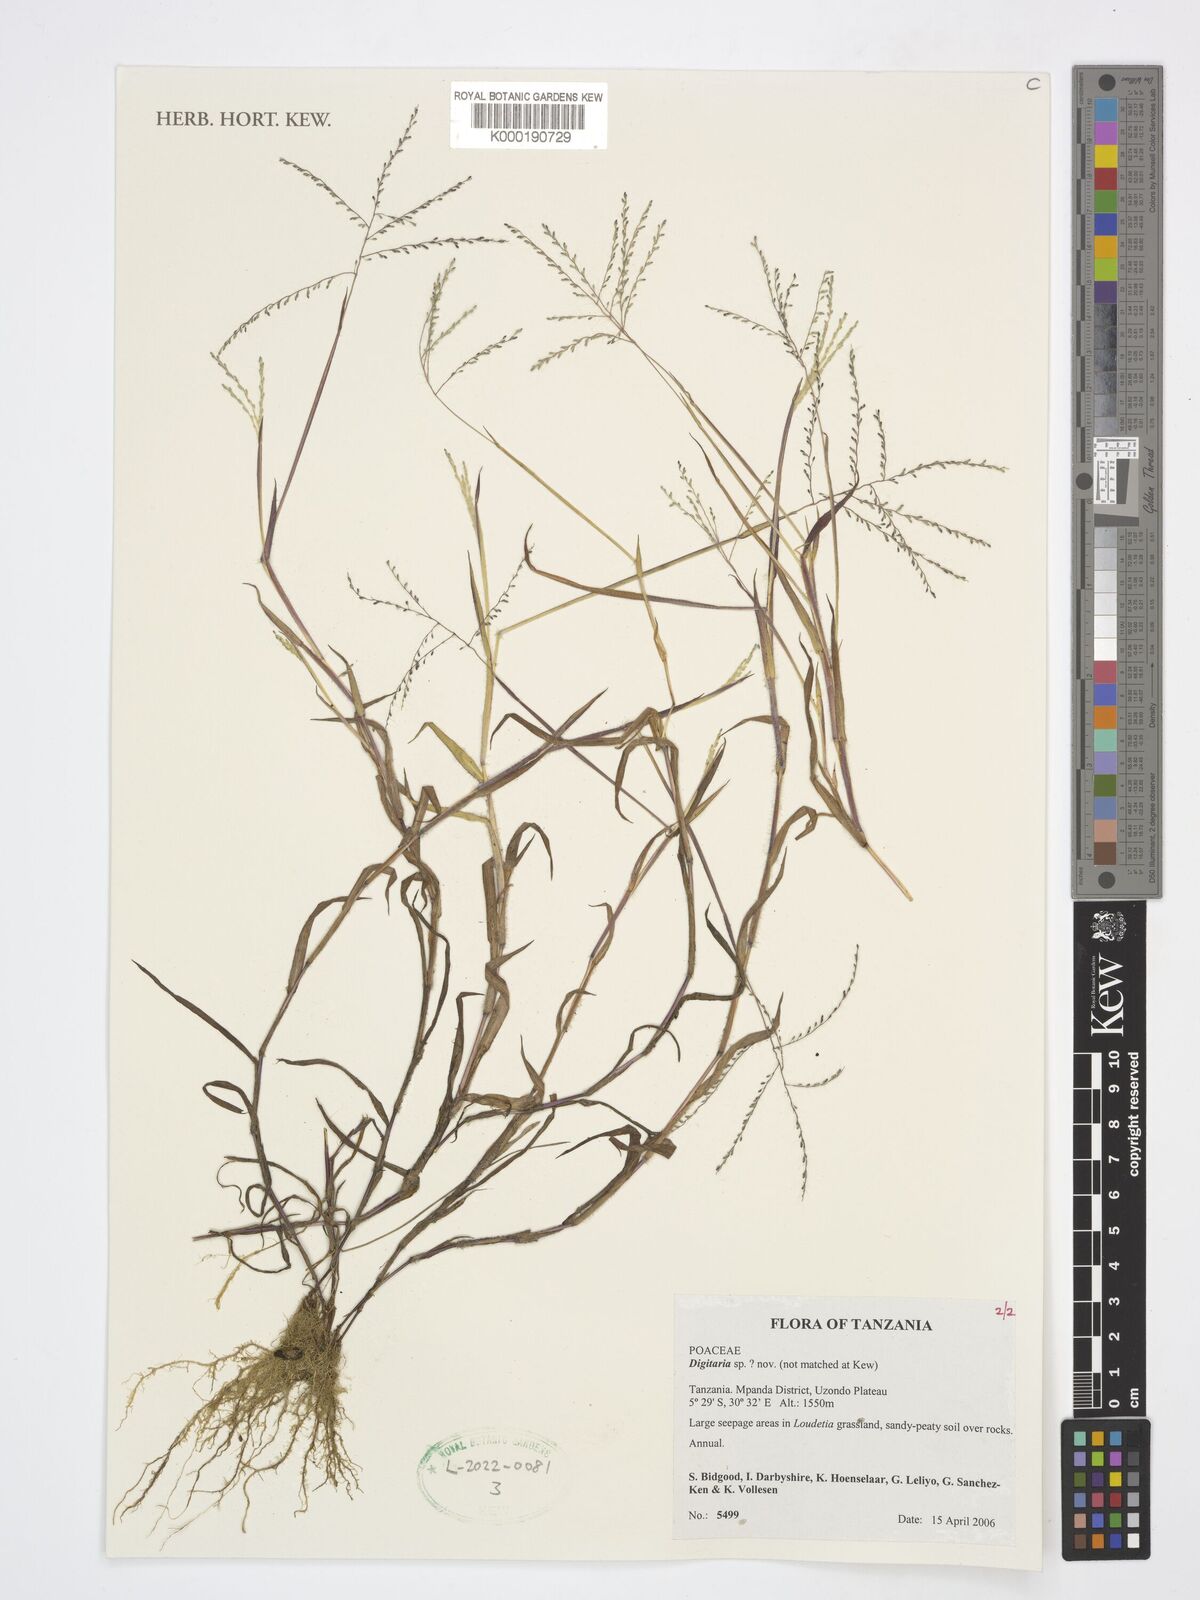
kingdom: Plantae
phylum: Tracheophyta
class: Liliopsida
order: Poales
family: Poaceae
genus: Digitaria
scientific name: Digitaria
